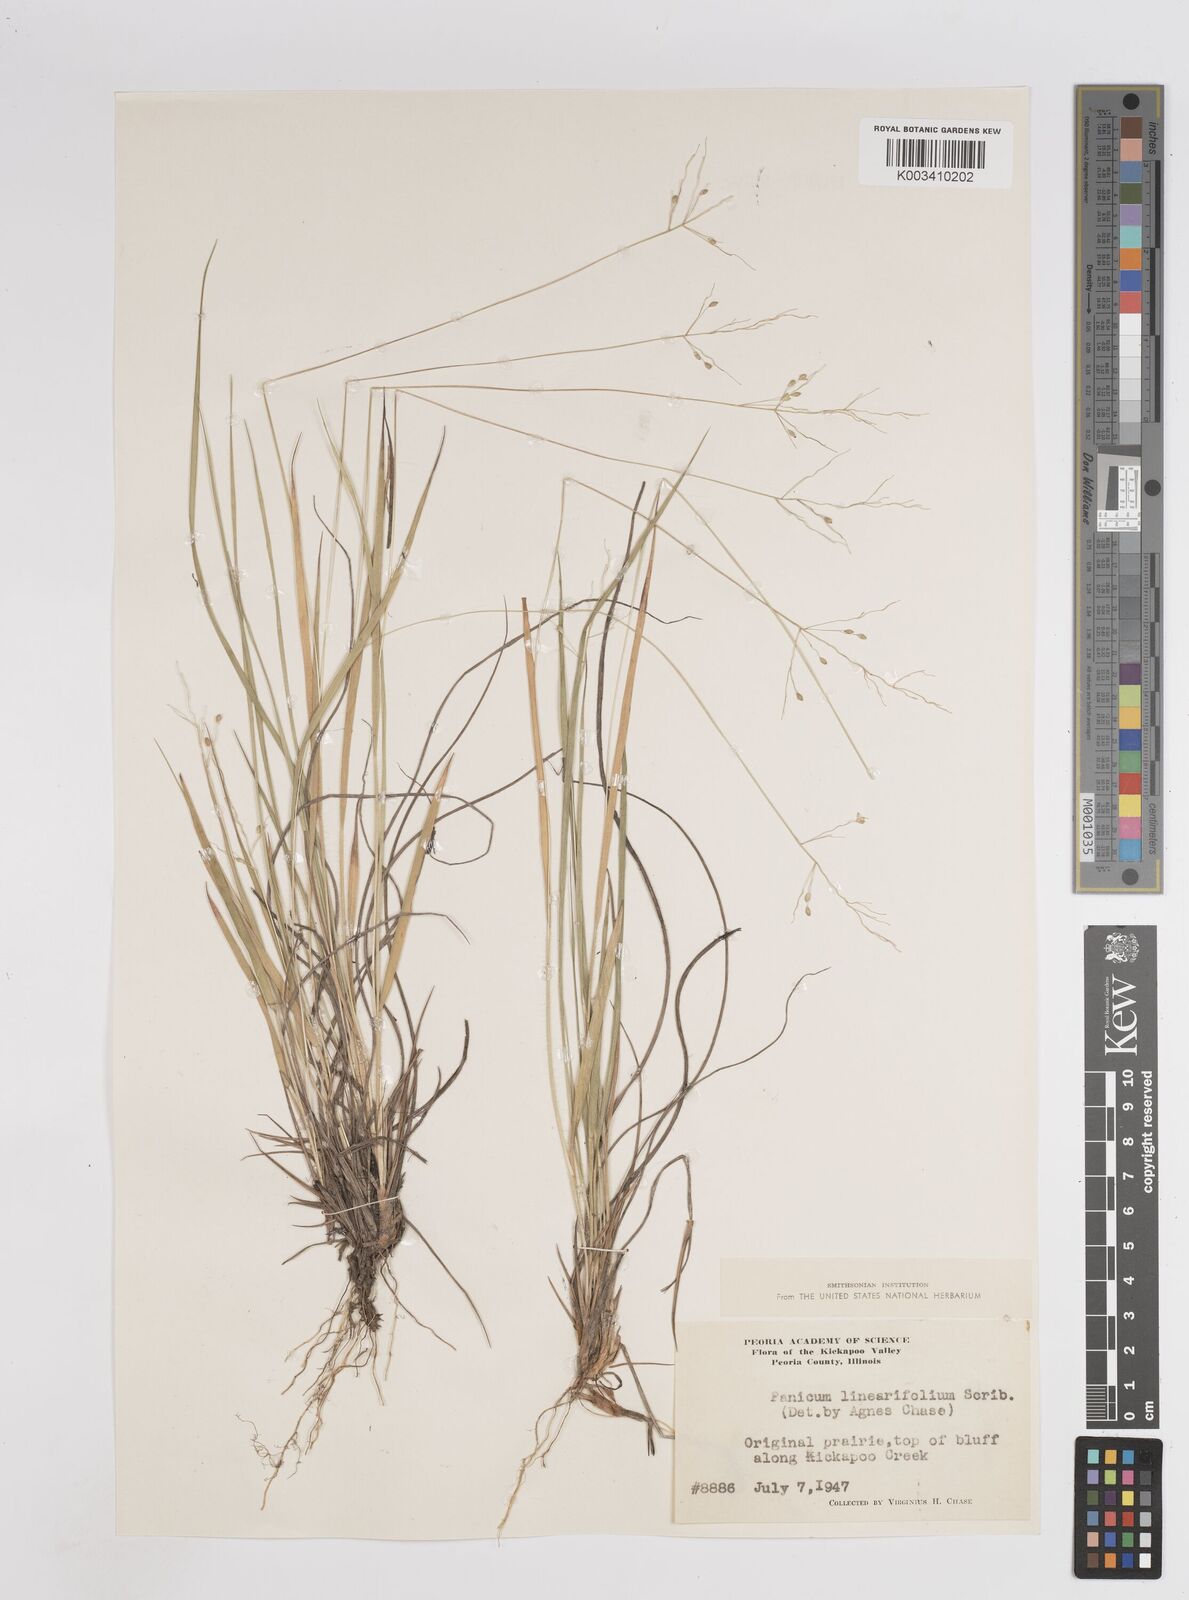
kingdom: Plantae
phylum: Tracheophyta
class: Liliopsida
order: Poales
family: Poaceae
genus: Dichanthelium
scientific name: Dichanthelium linearifolium
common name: Linear-leaved panicgrass
